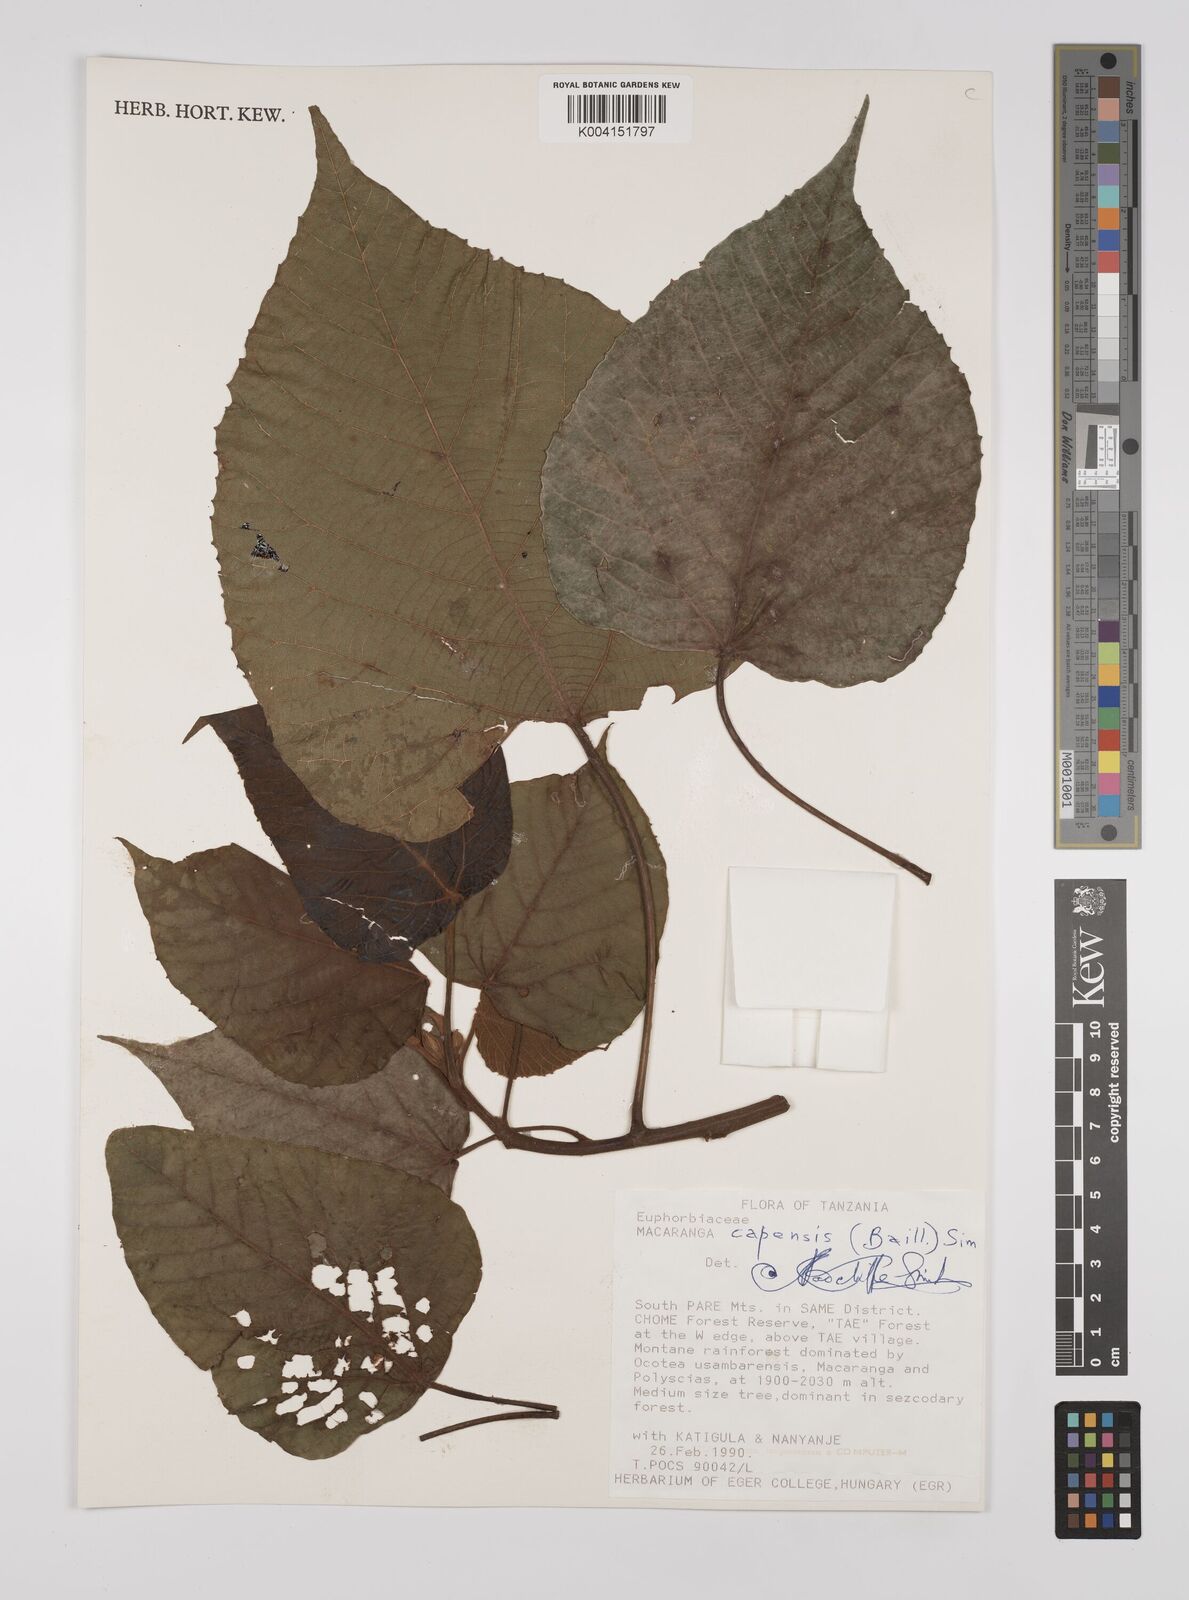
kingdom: Plantae
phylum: Tracheophyta
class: Magnoliopsida
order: Malpighiales
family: Euphorbiaceae
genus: Macaranga
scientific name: Macaranga capensis
